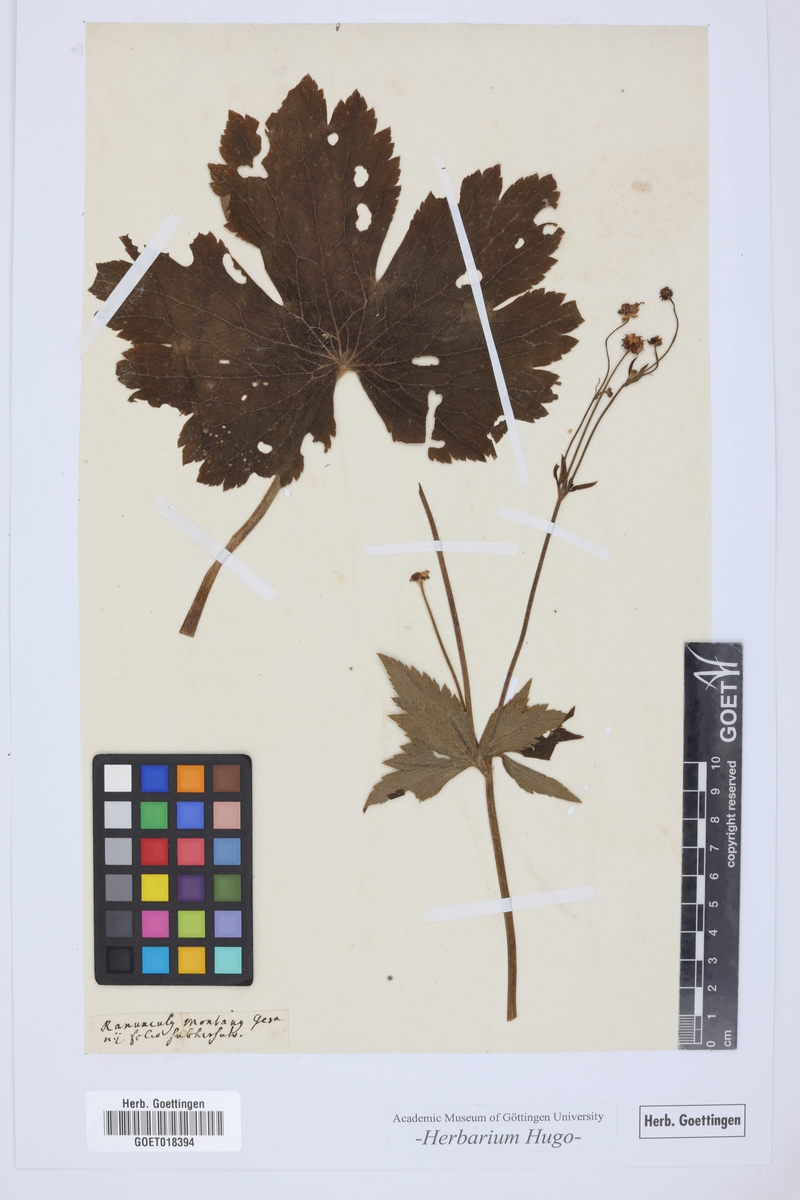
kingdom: Plantae
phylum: Tracheophyta
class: Magnoliopsida
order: Ranunculales
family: Ranunculaceae
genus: Ranunculus
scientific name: Ranunculus
